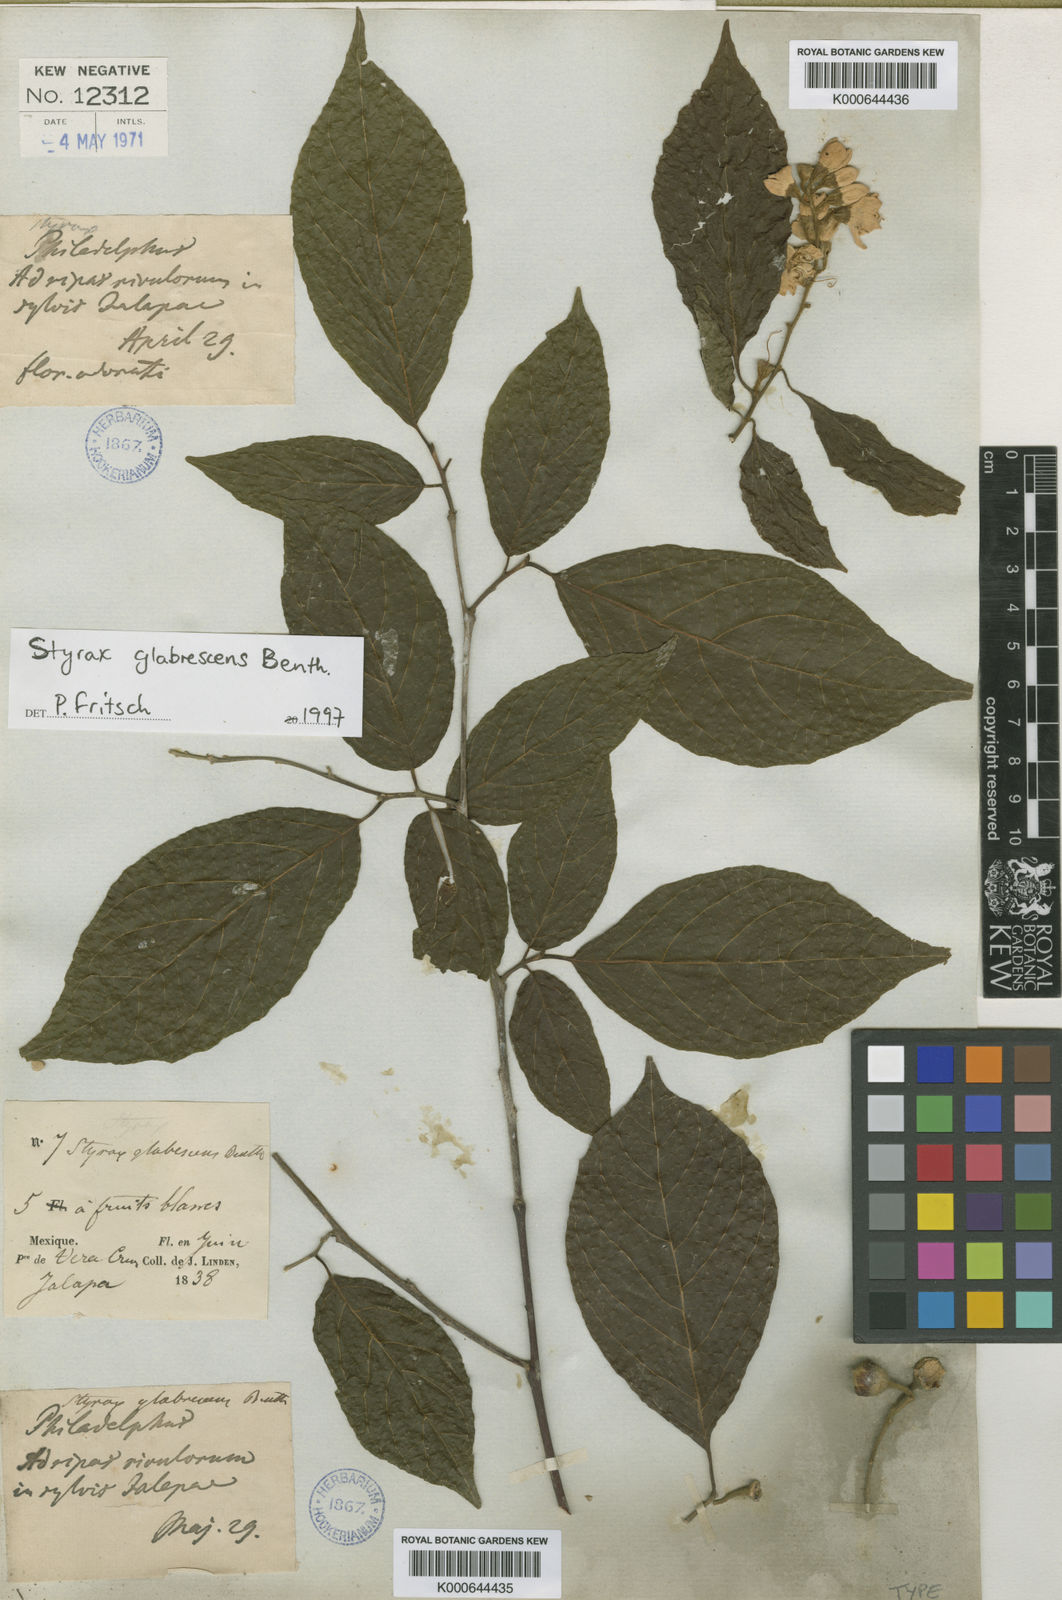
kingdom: Plantae
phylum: Tracheophyta
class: Magnoliopsida
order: Ericales
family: Styracaceae
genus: Styrax
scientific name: Styrax glabrescens
